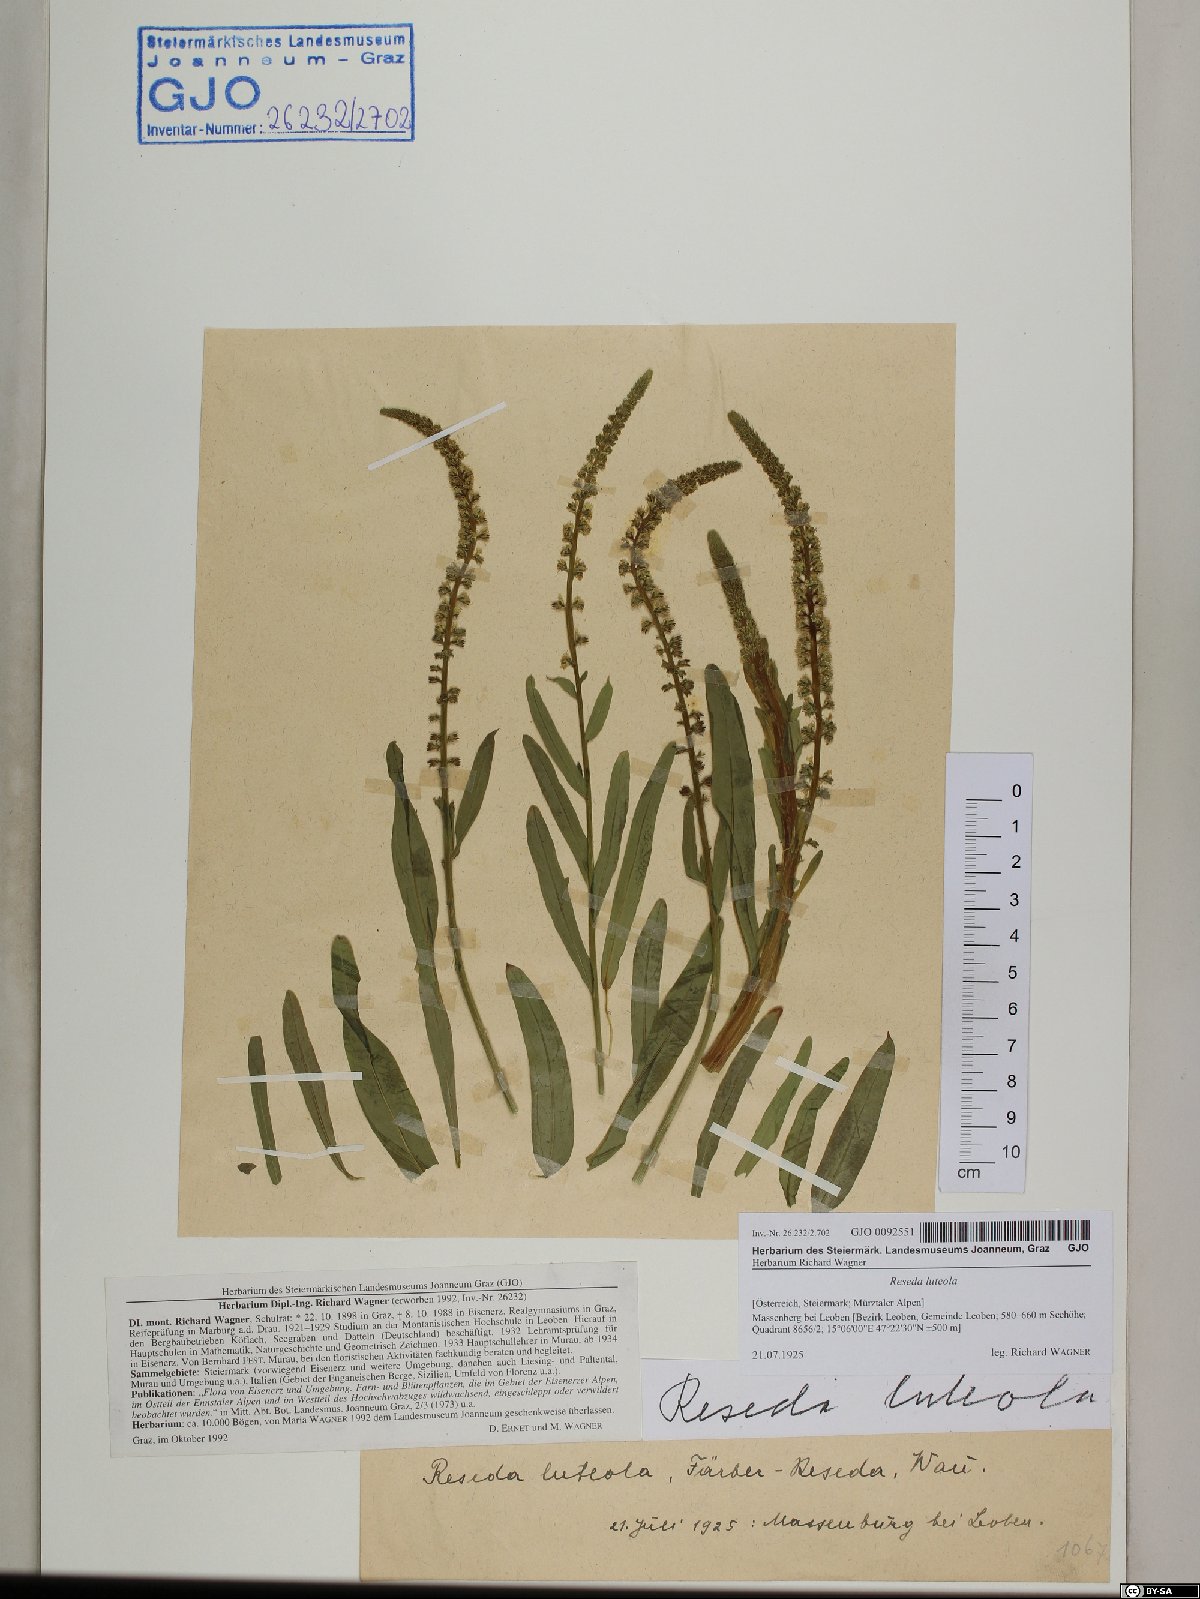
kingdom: Plantae
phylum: Tracheophyta
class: Magnoliopsida
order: Brassicales
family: Resedaceae
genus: Reseda
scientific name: Reseda luteola
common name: Weld
